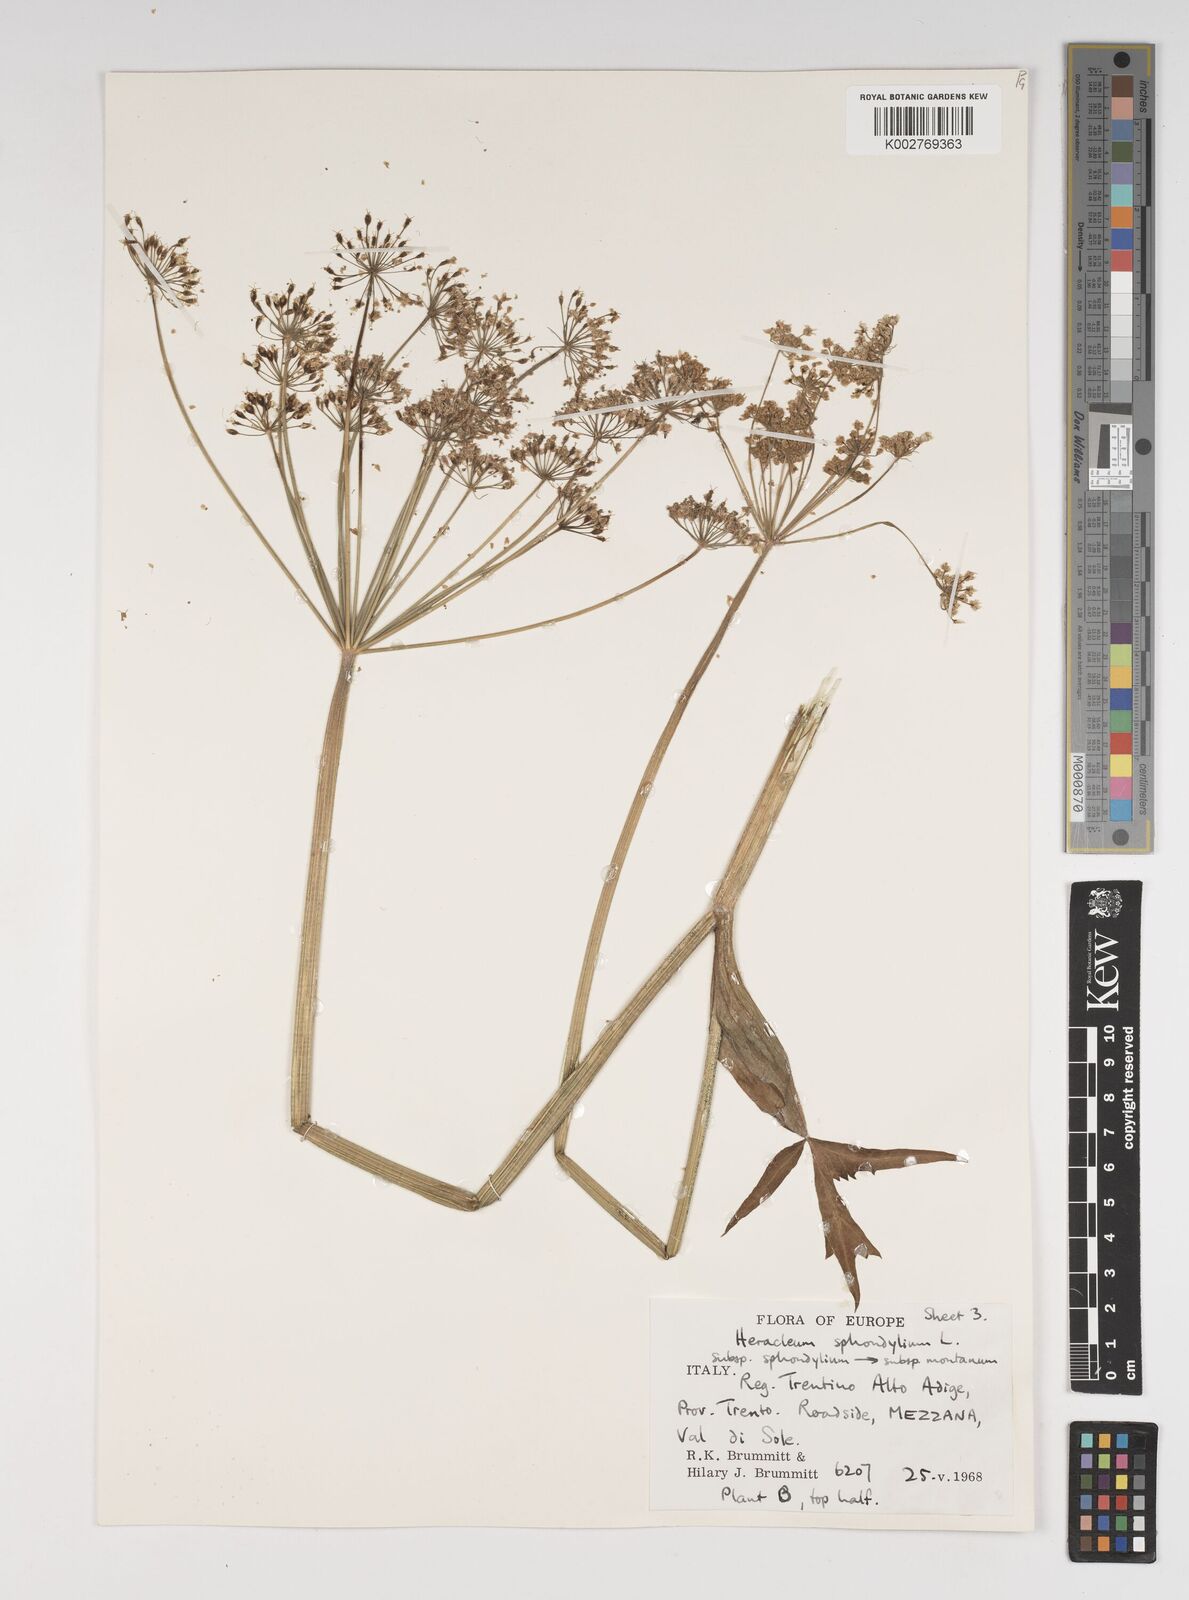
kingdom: Plantae
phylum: Tracheophyta
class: Magnoliopsida
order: Apiales
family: Apiaceae
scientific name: Apiaceae
